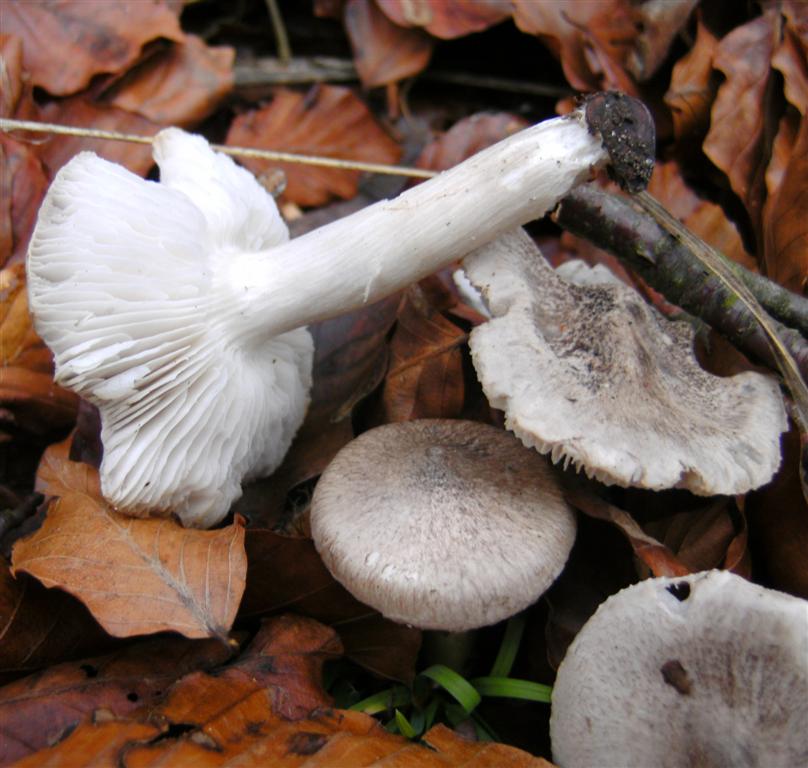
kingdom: Fungi
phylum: Basidiomycota
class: Agaricomycetes
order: Agaricales
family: Tricholomataceae
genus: Tricholoma
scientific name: Tricholoma scalpturatum
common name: gulplettet ridderhat
